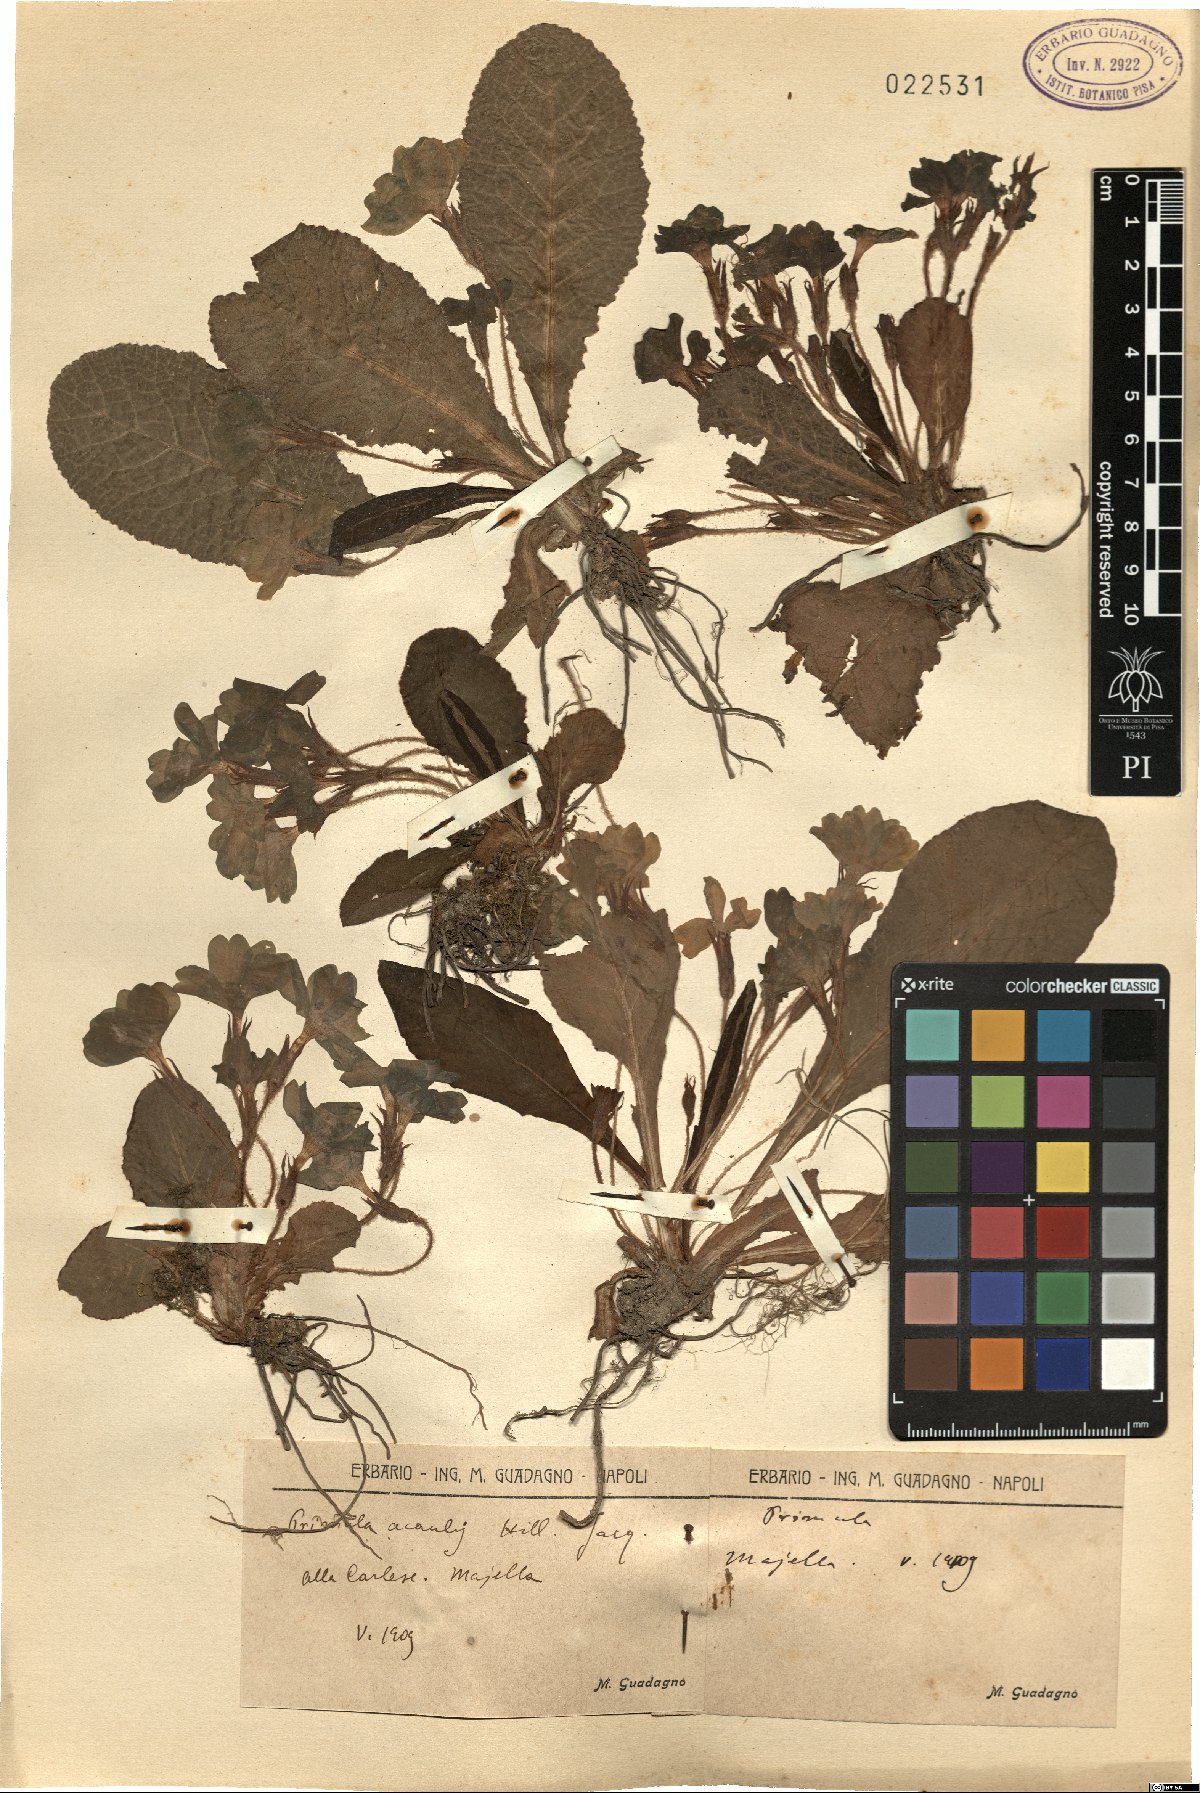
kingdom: Plantae
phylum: Tracheophyta
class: Magnoliopsida
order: Ericales
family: Primulaceae
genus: Primula
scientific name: Primula vulgaris
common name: Primrose
